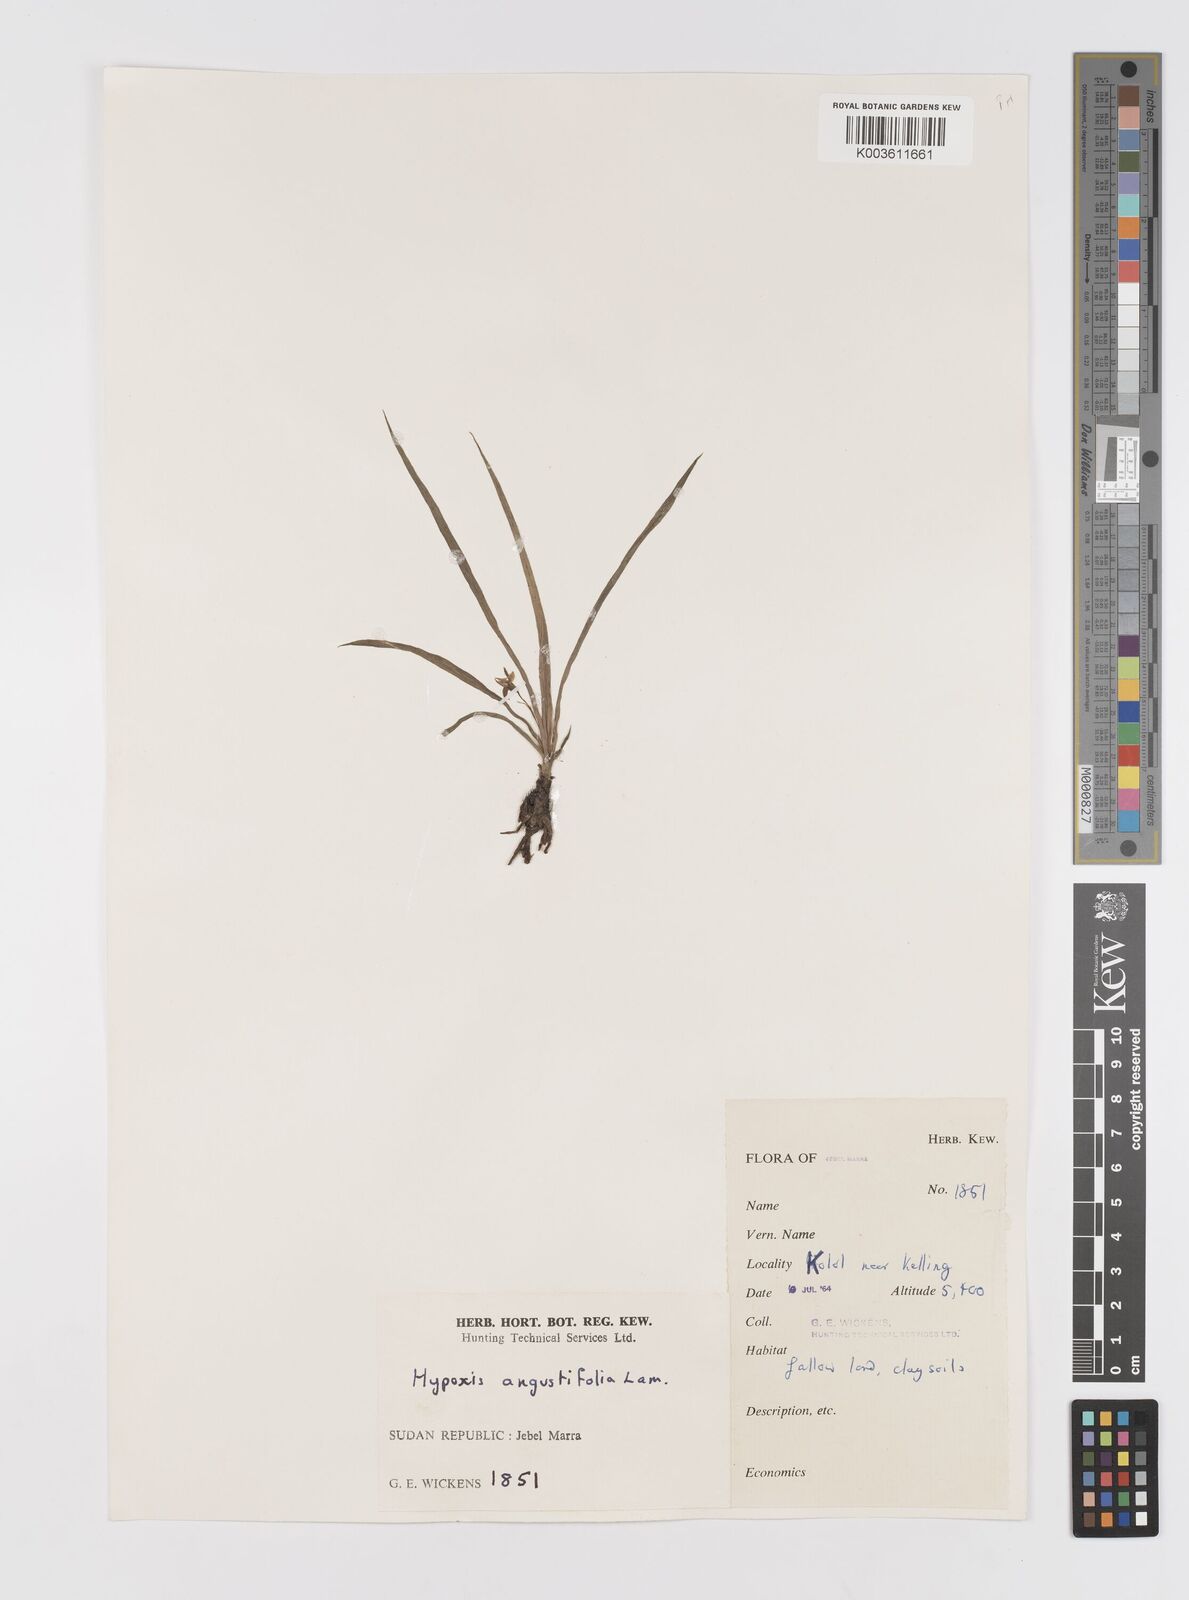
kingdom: Plantae
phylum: Tracheophyta
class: Liliopsida
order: Asparagales
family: Hypoxidaceae
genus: Hypoxis
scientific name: Hypoxis angustifolia
